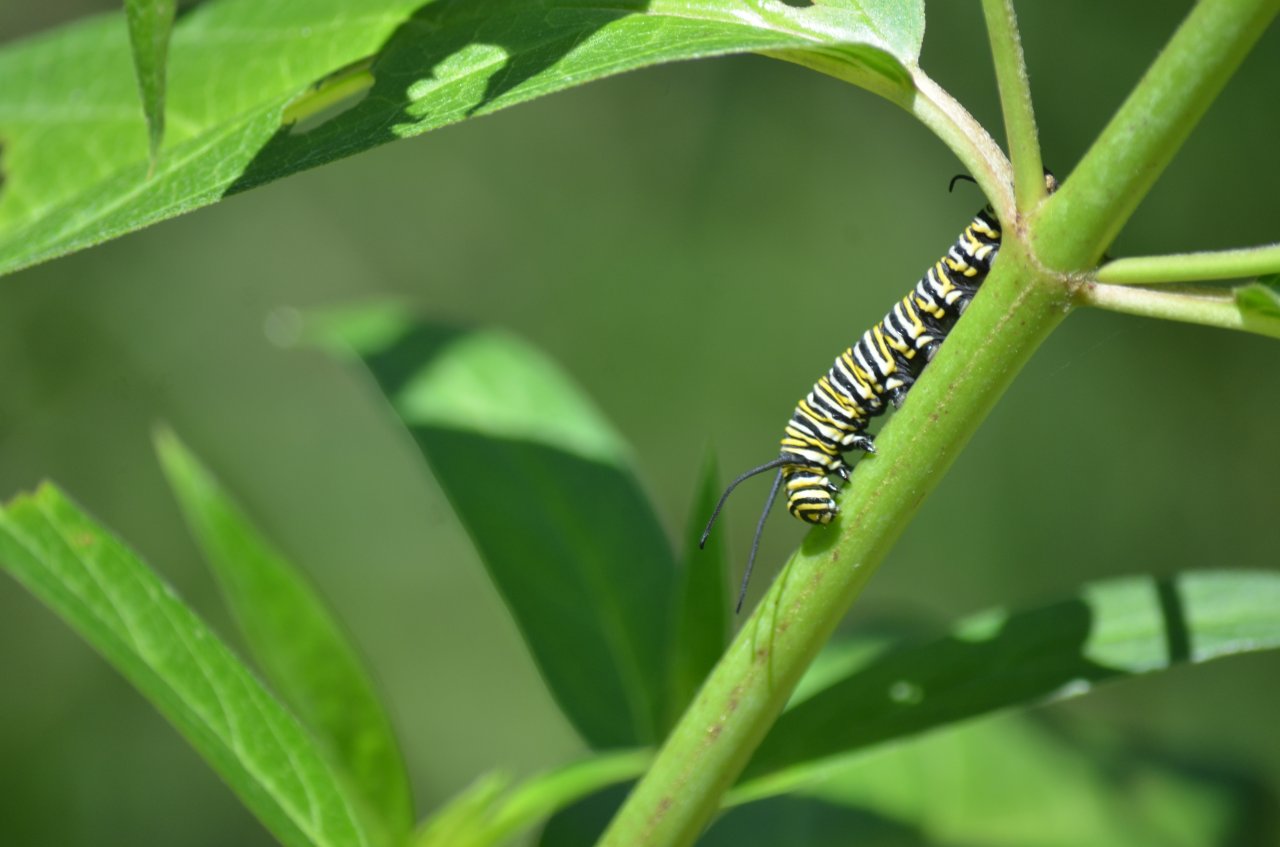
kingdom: Animalia
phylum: Arthropoda
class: Insecta
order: Lepidoptera
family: Nymphalidae
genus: Danaus
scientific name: Danaus plexippus
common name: Monarch
